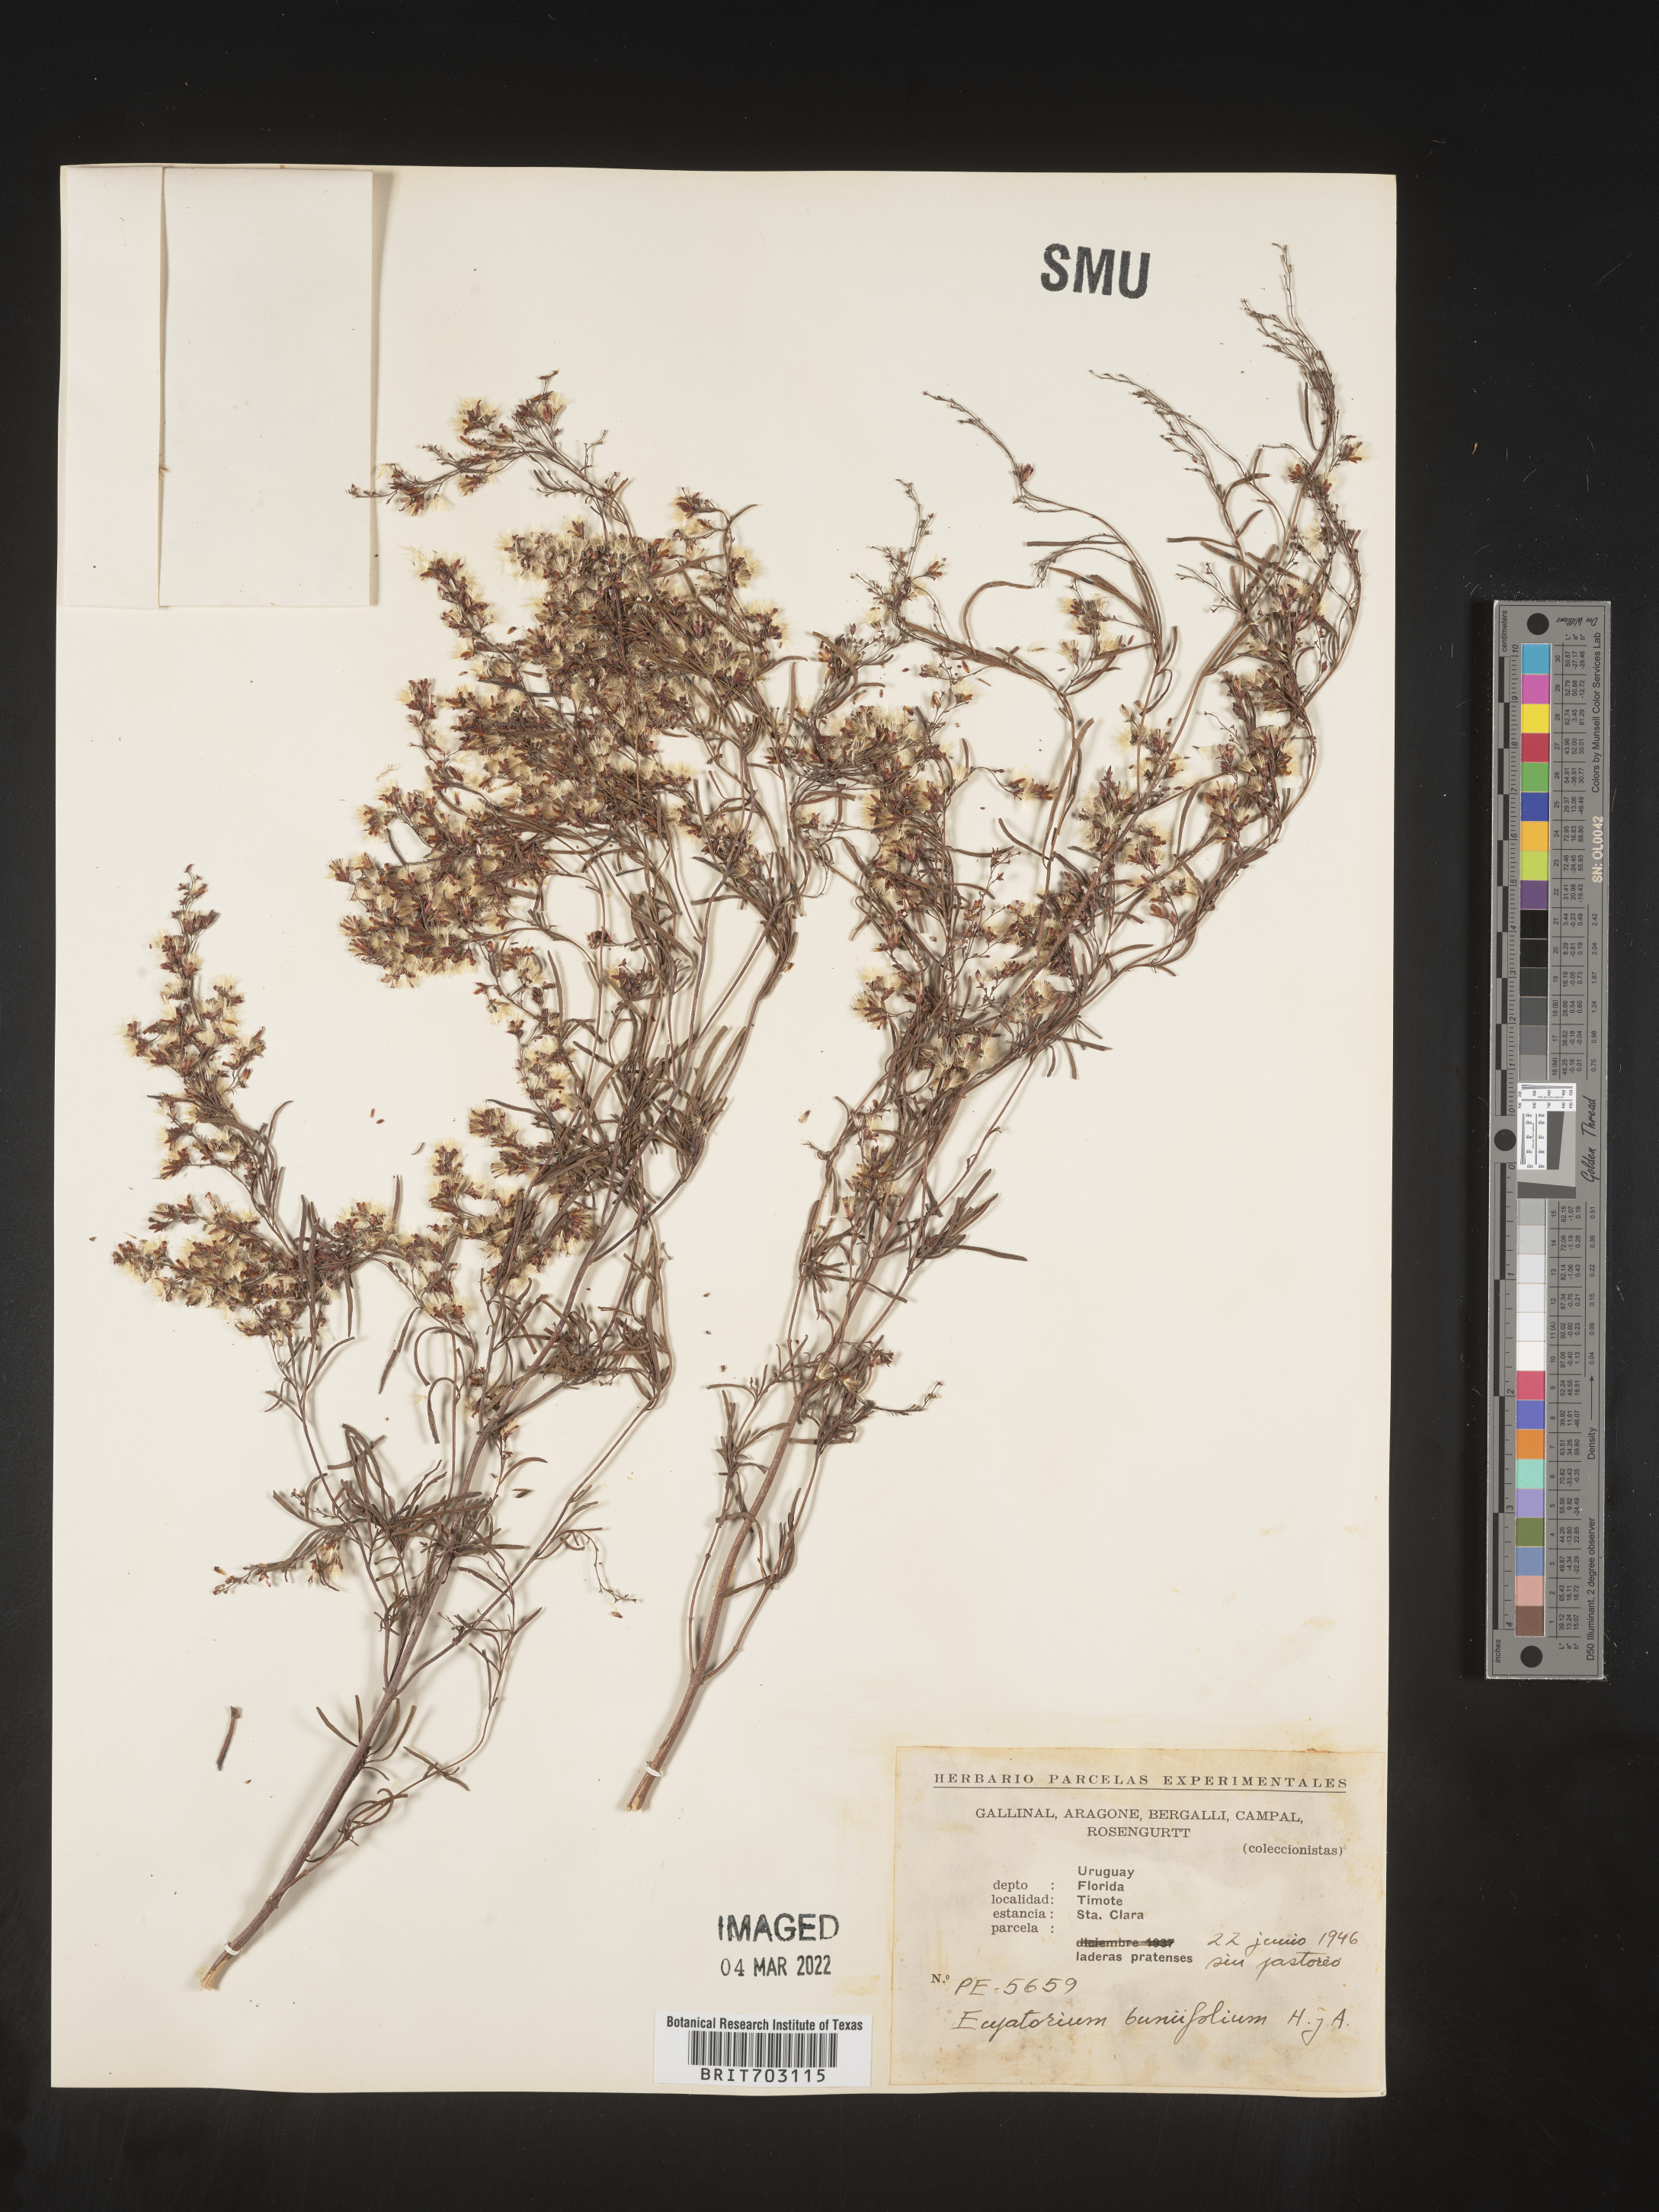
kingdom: Plantae
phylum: Tracheophyta
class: Magnoliopsida
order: Asterales
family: Asteraceae
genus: Eupatorium
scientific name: Eupatorium
